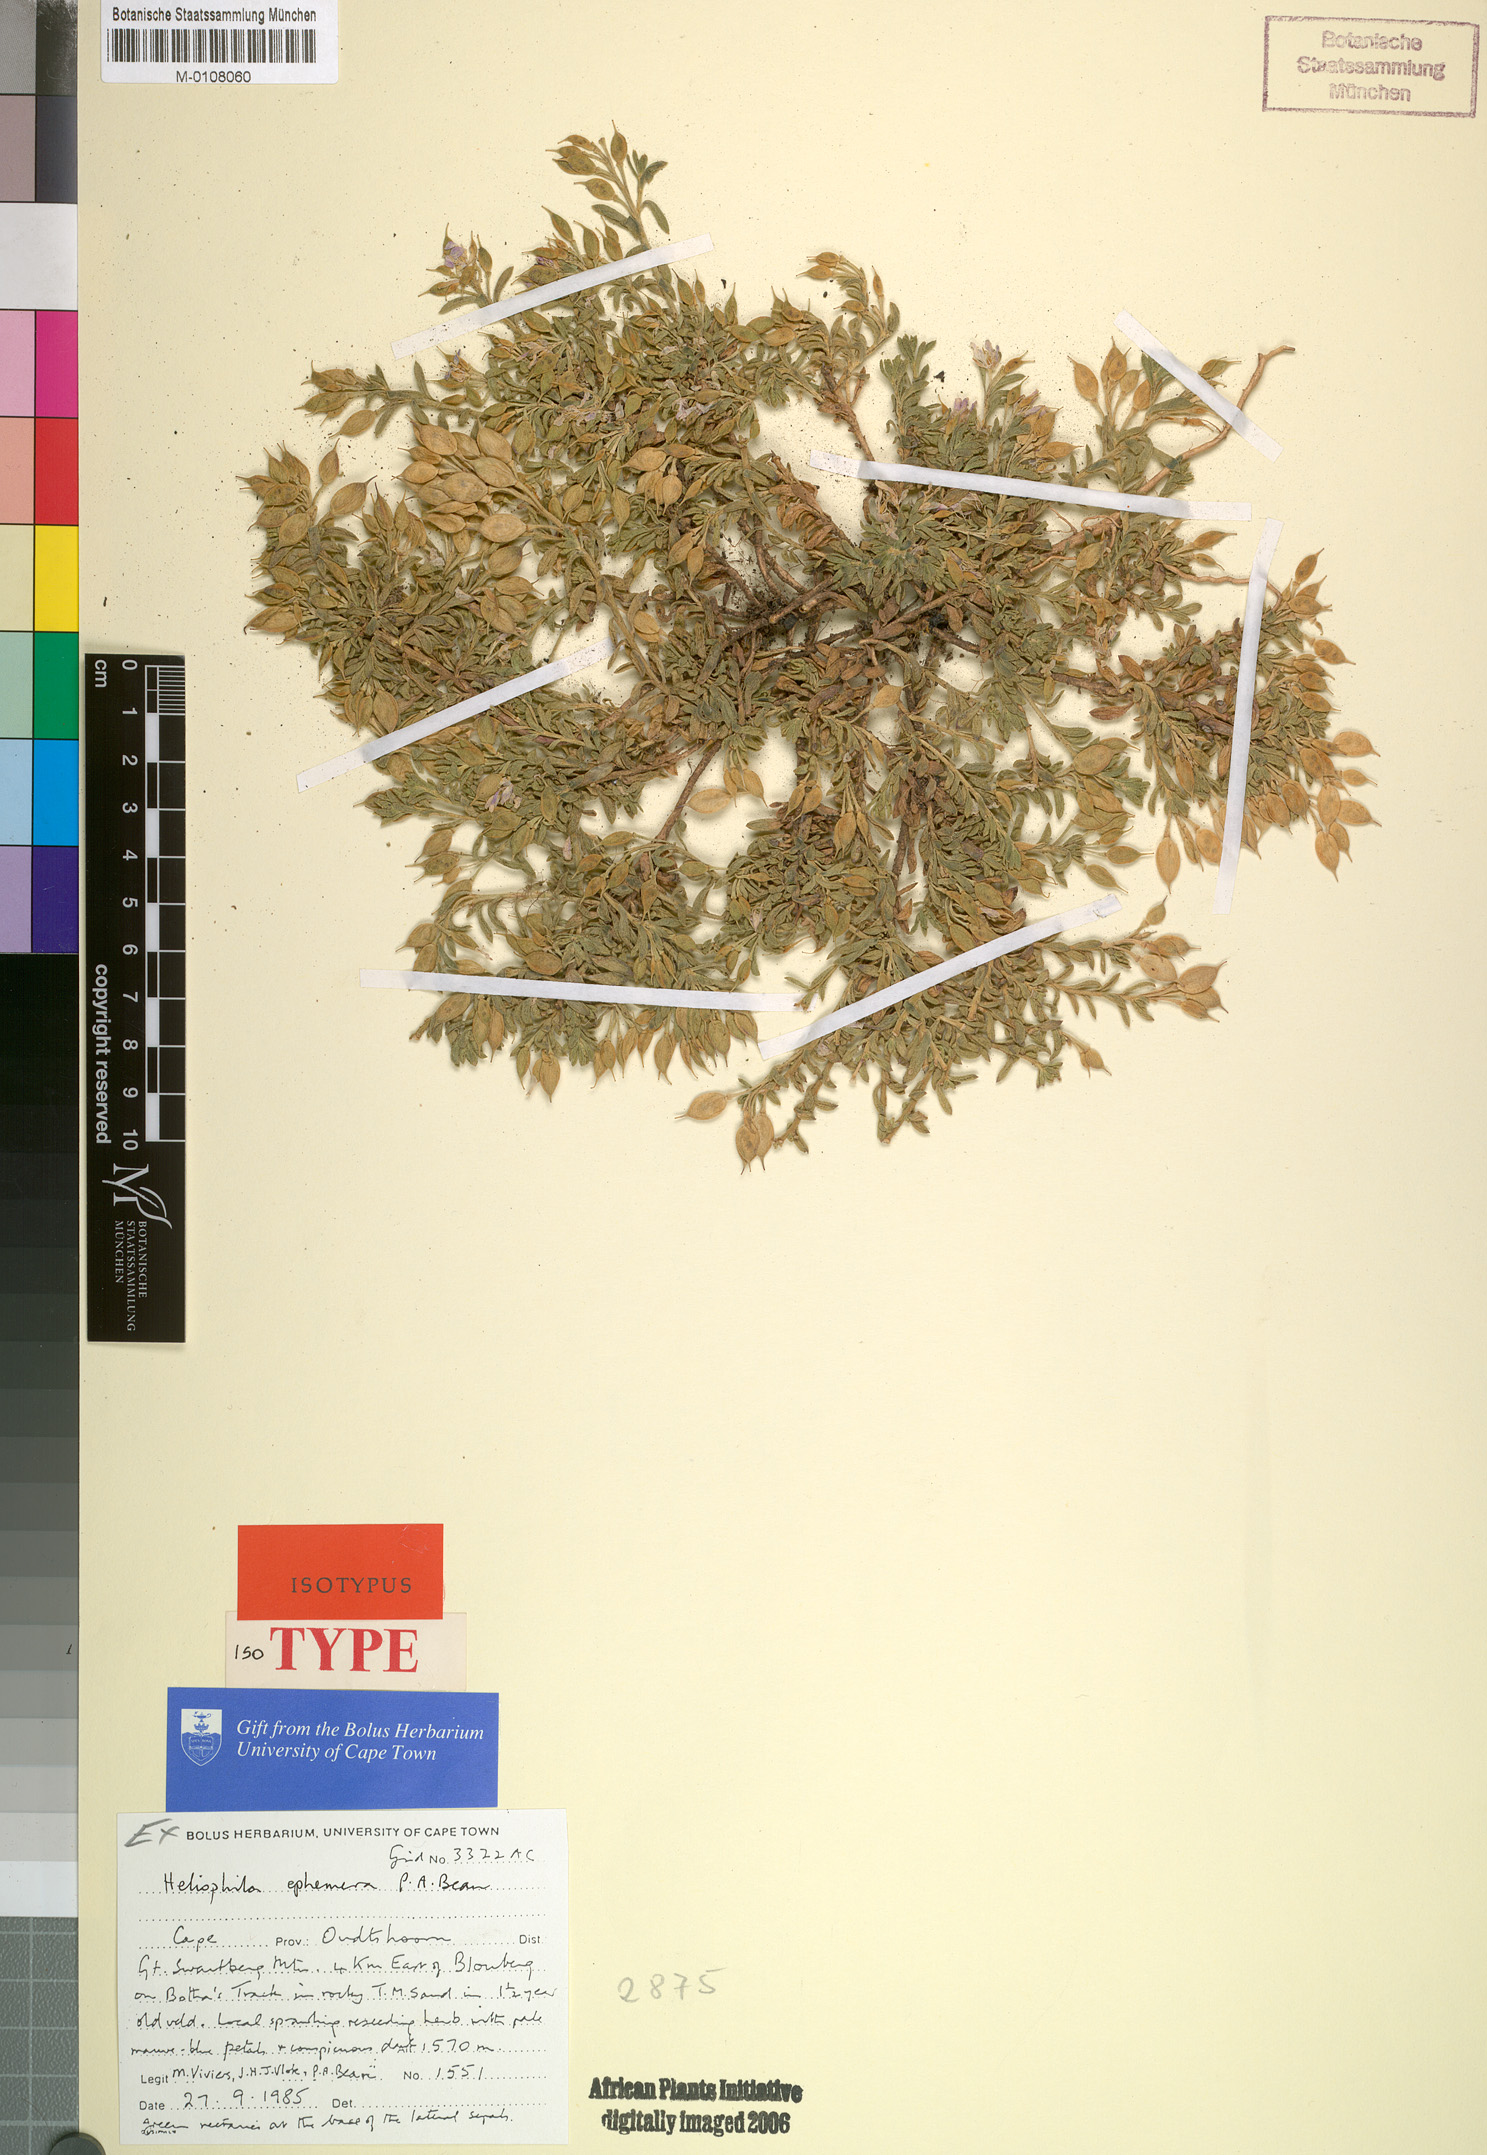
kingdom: Plantae
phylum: Tracheophyta
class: Magnoliopsida
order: Brassicales
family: Brassicaceae
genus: Heliophila
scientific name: Heliophila ephemera
